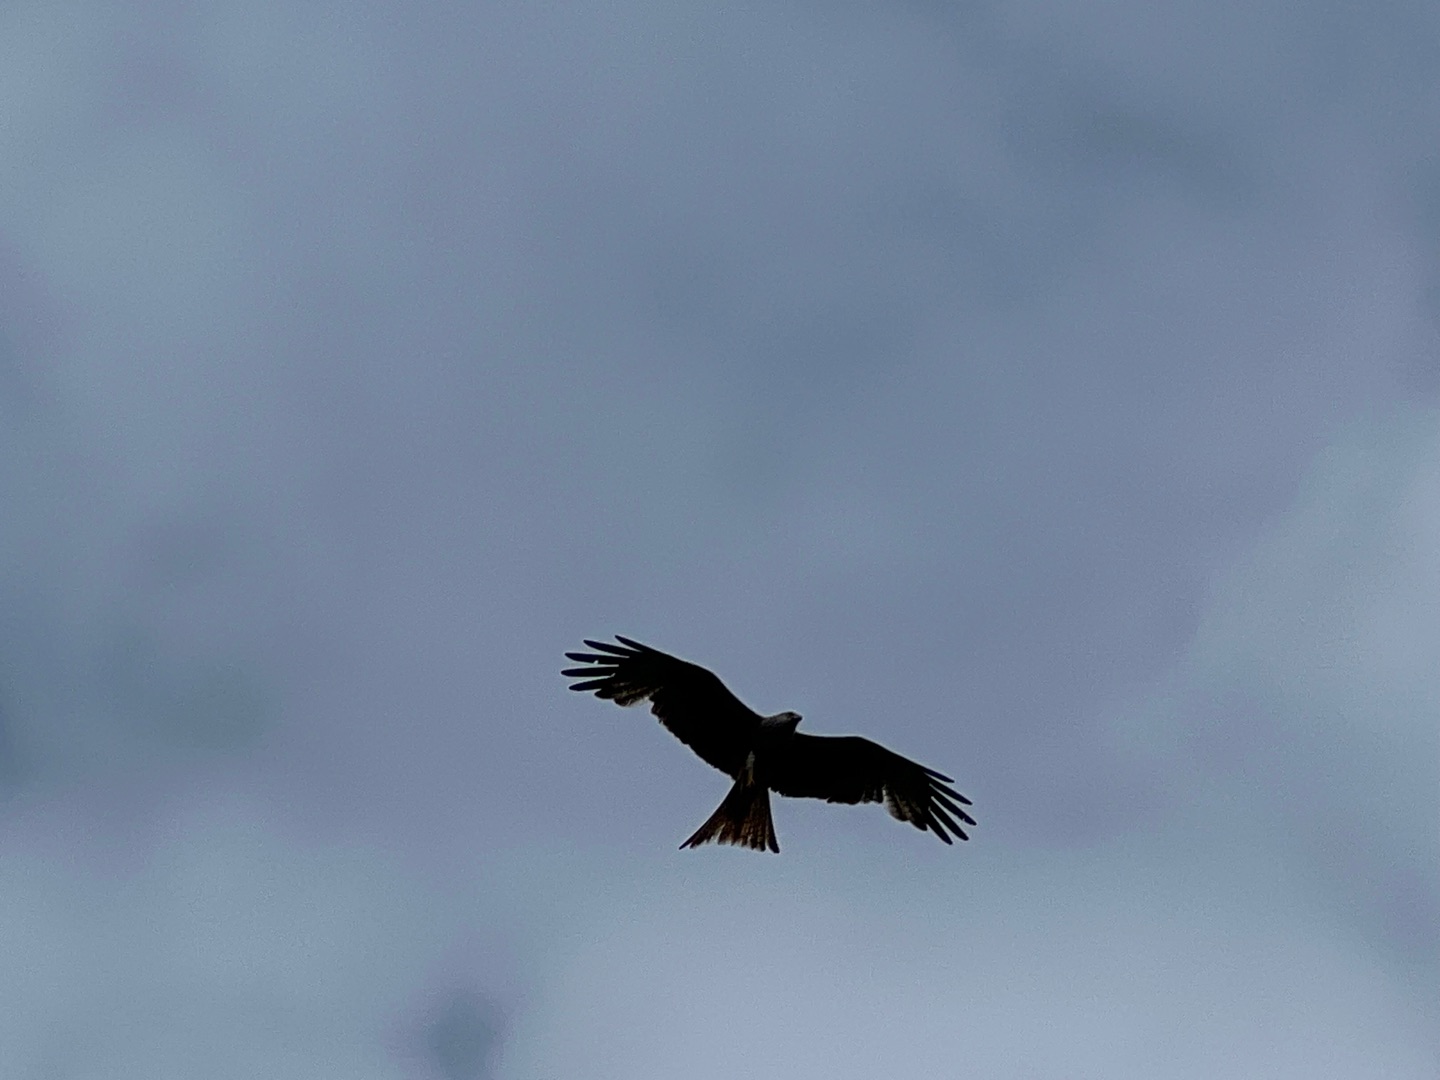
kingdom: Animalia
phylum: Chordata
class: Aves
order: Accipitriformes
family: Accipitridae
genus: Milvus
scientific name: Milvus milvus
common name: Rød glente
